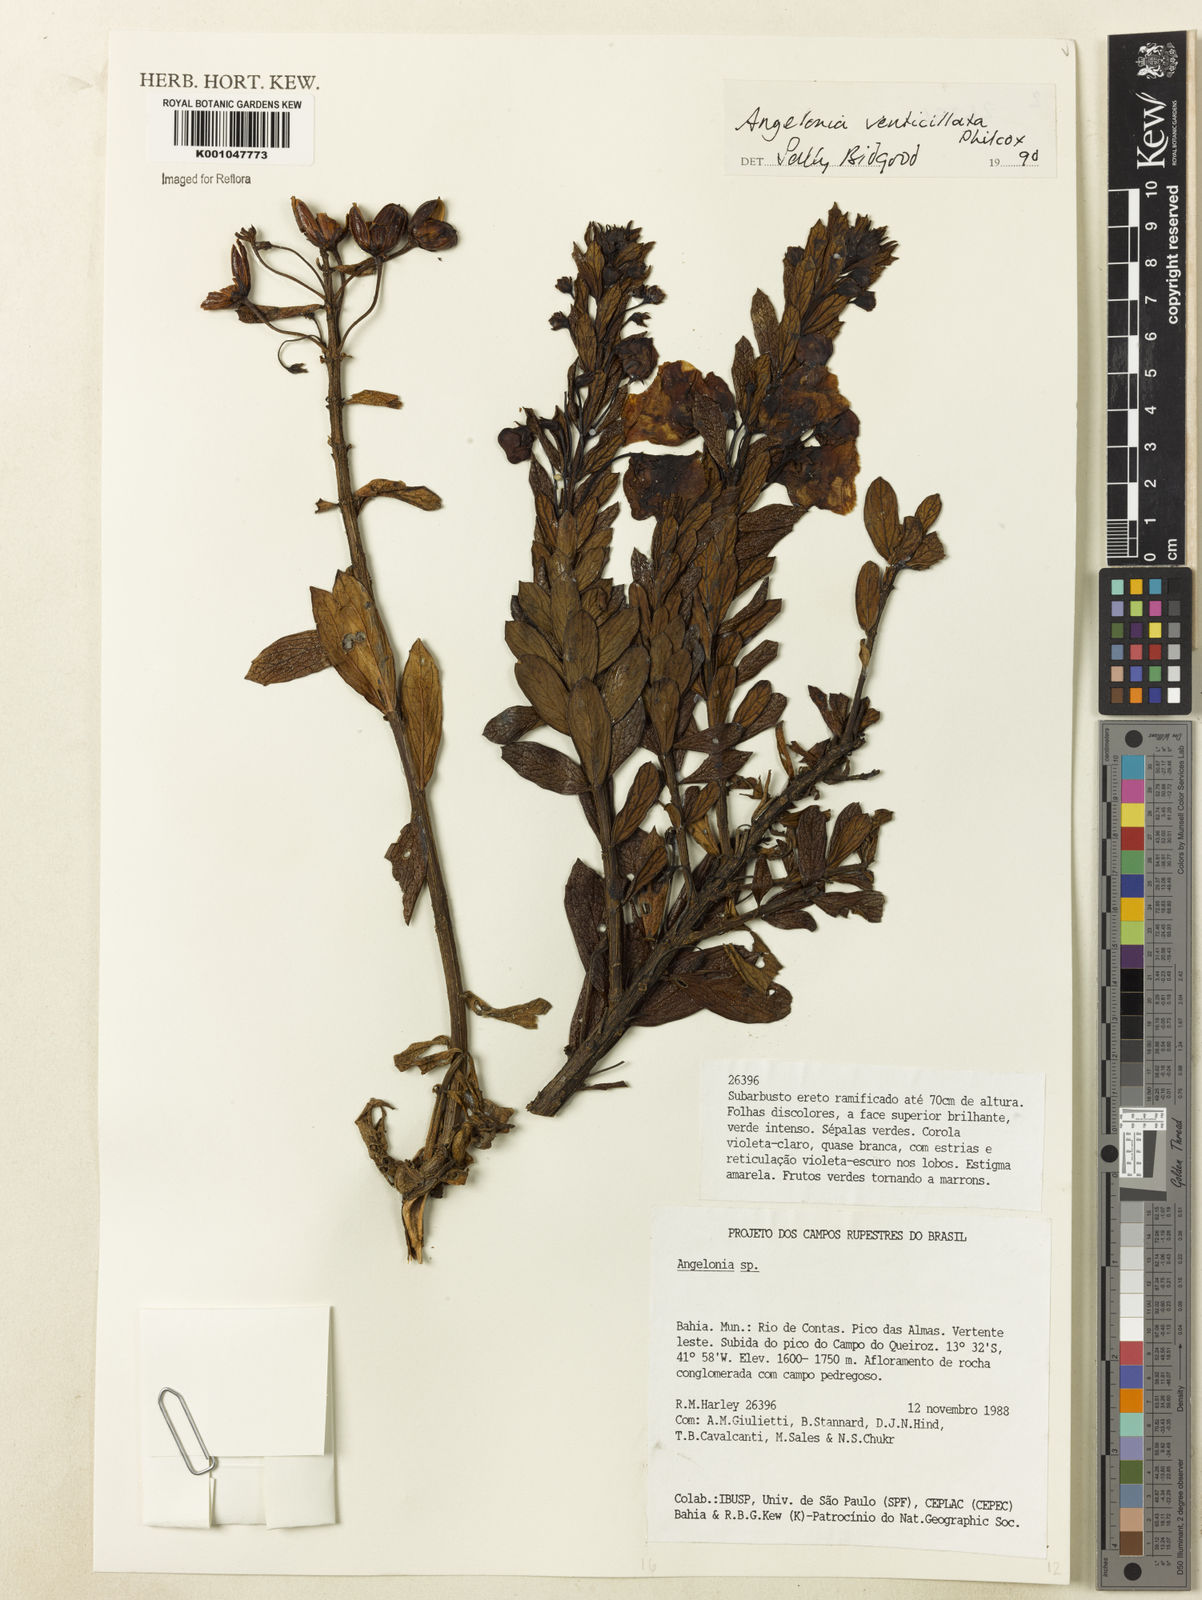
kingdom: Plantae
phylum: Tracheophyta
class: Magnoliopsida
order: Lamiales
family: Plantaginaceae
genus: Angelonia
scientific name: Angelonia verticillata
